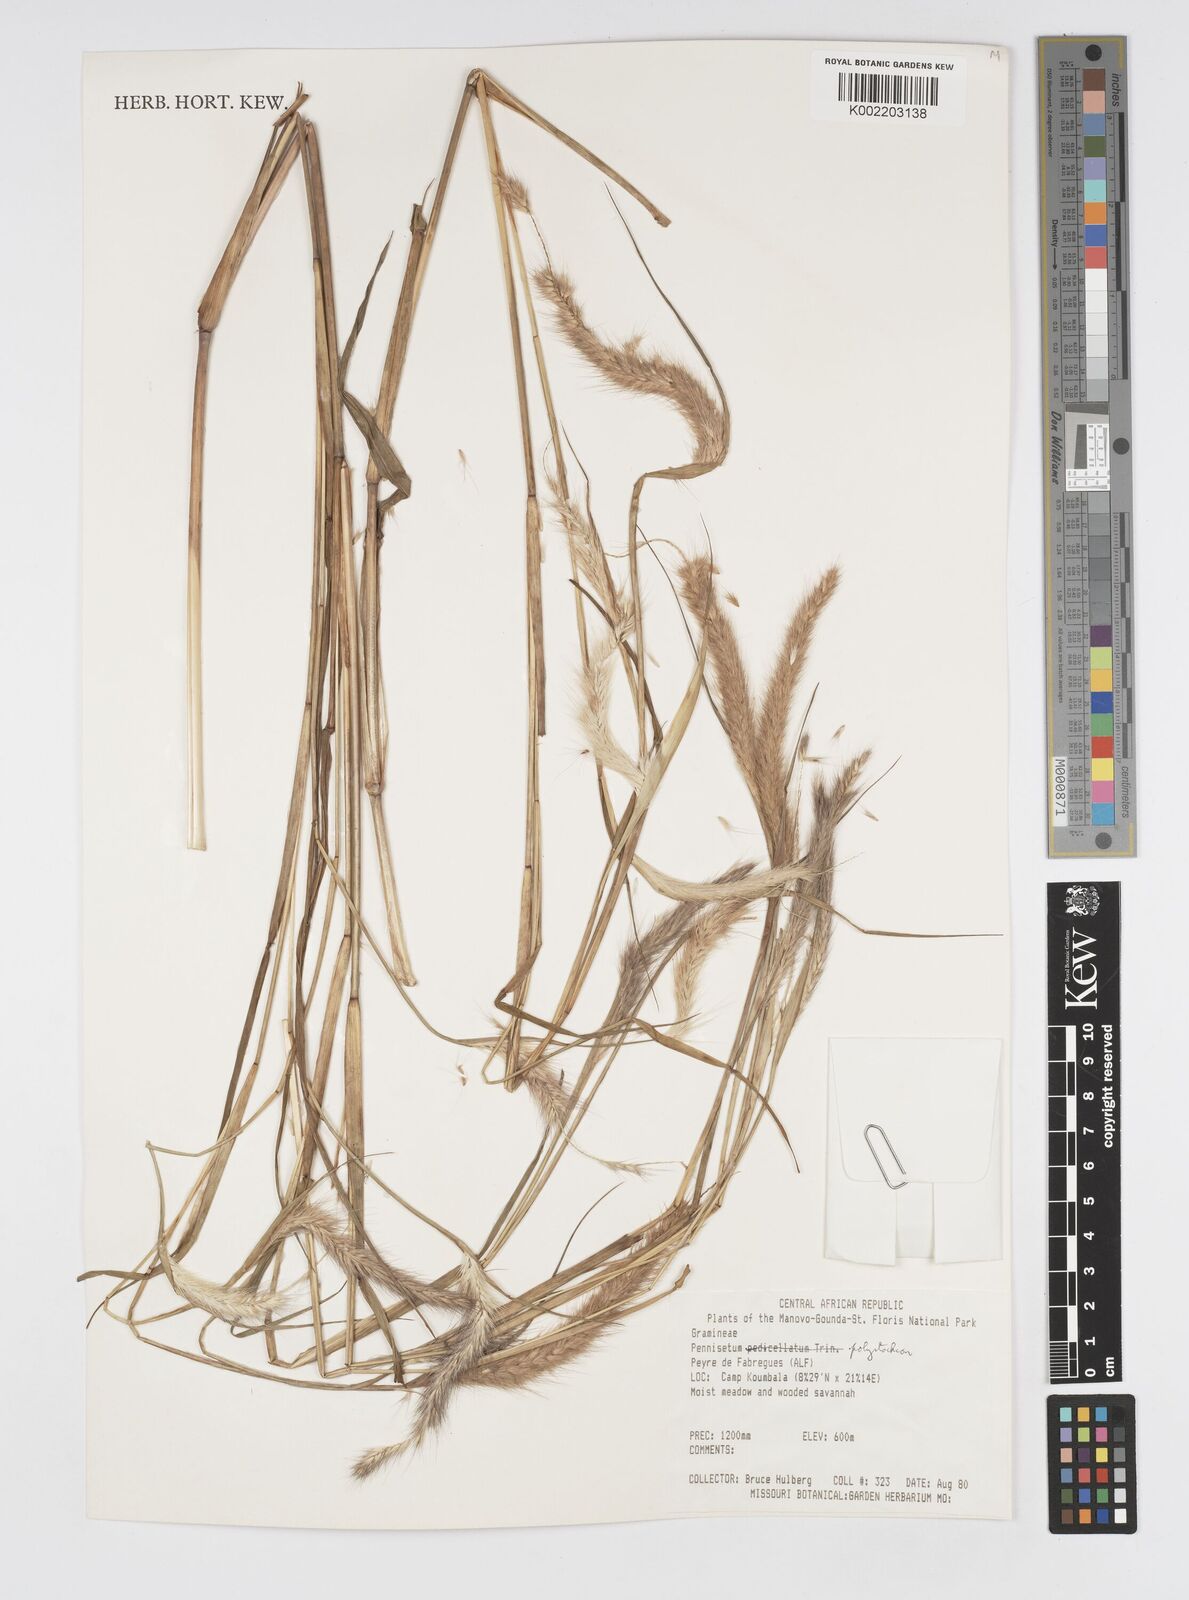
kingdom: Plantae
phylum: Tracheophyta
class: Liliopsida
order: Poales
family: Poaceae
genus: Setaria
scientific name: Setaria parviflora
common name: Knotroot bristle-grass
